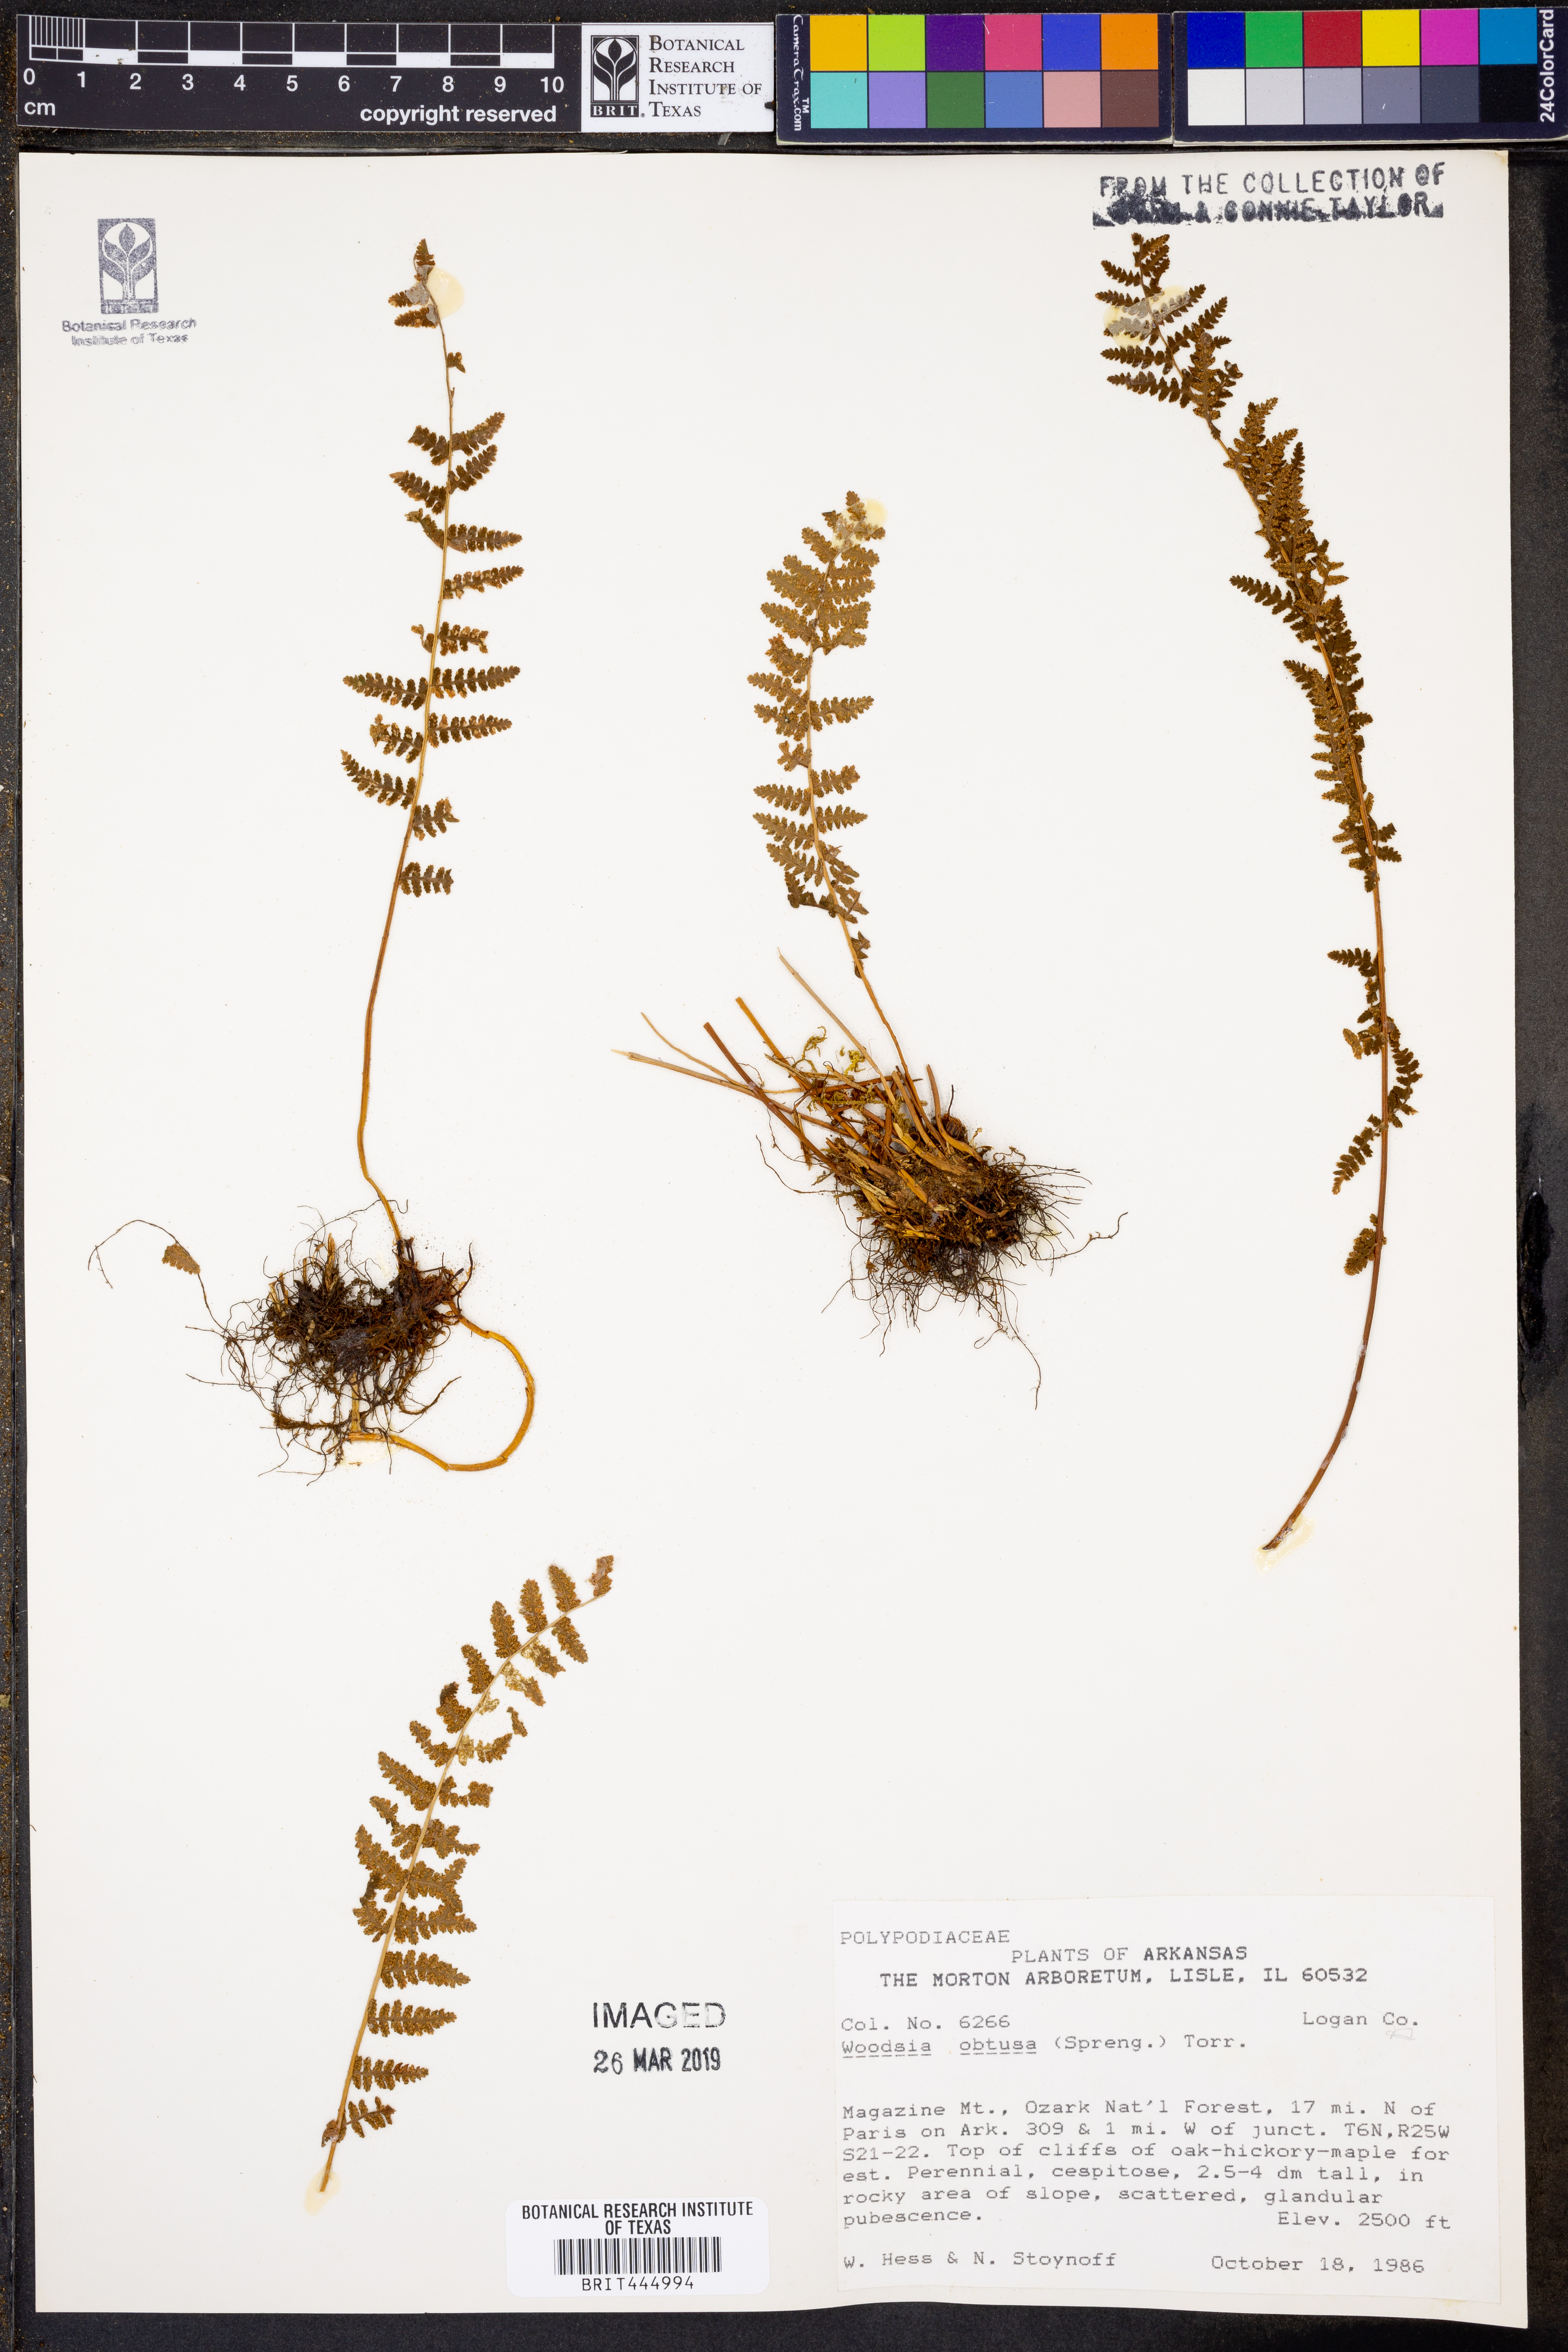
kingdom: Plantae
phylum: Tracheophyta
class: Polypodiopsida
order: Polypodiales
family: Woodsiaceae
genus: Physematium
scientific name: Physematium obtusum
